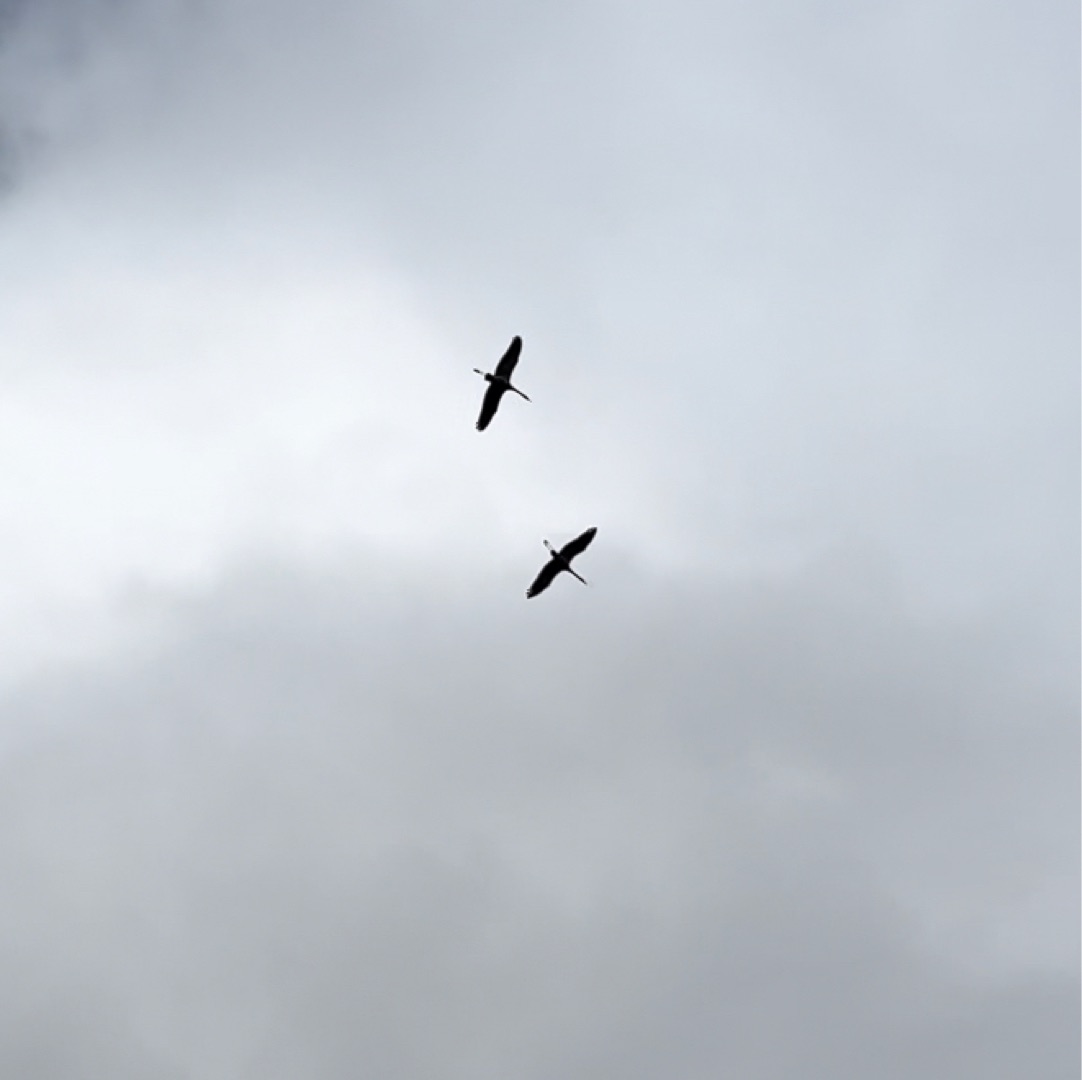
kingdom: Animalia
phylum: Chordata
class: Aves
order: Gruiformes
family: Gruidae
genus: Grus
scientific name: Grus grus
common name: Trane
